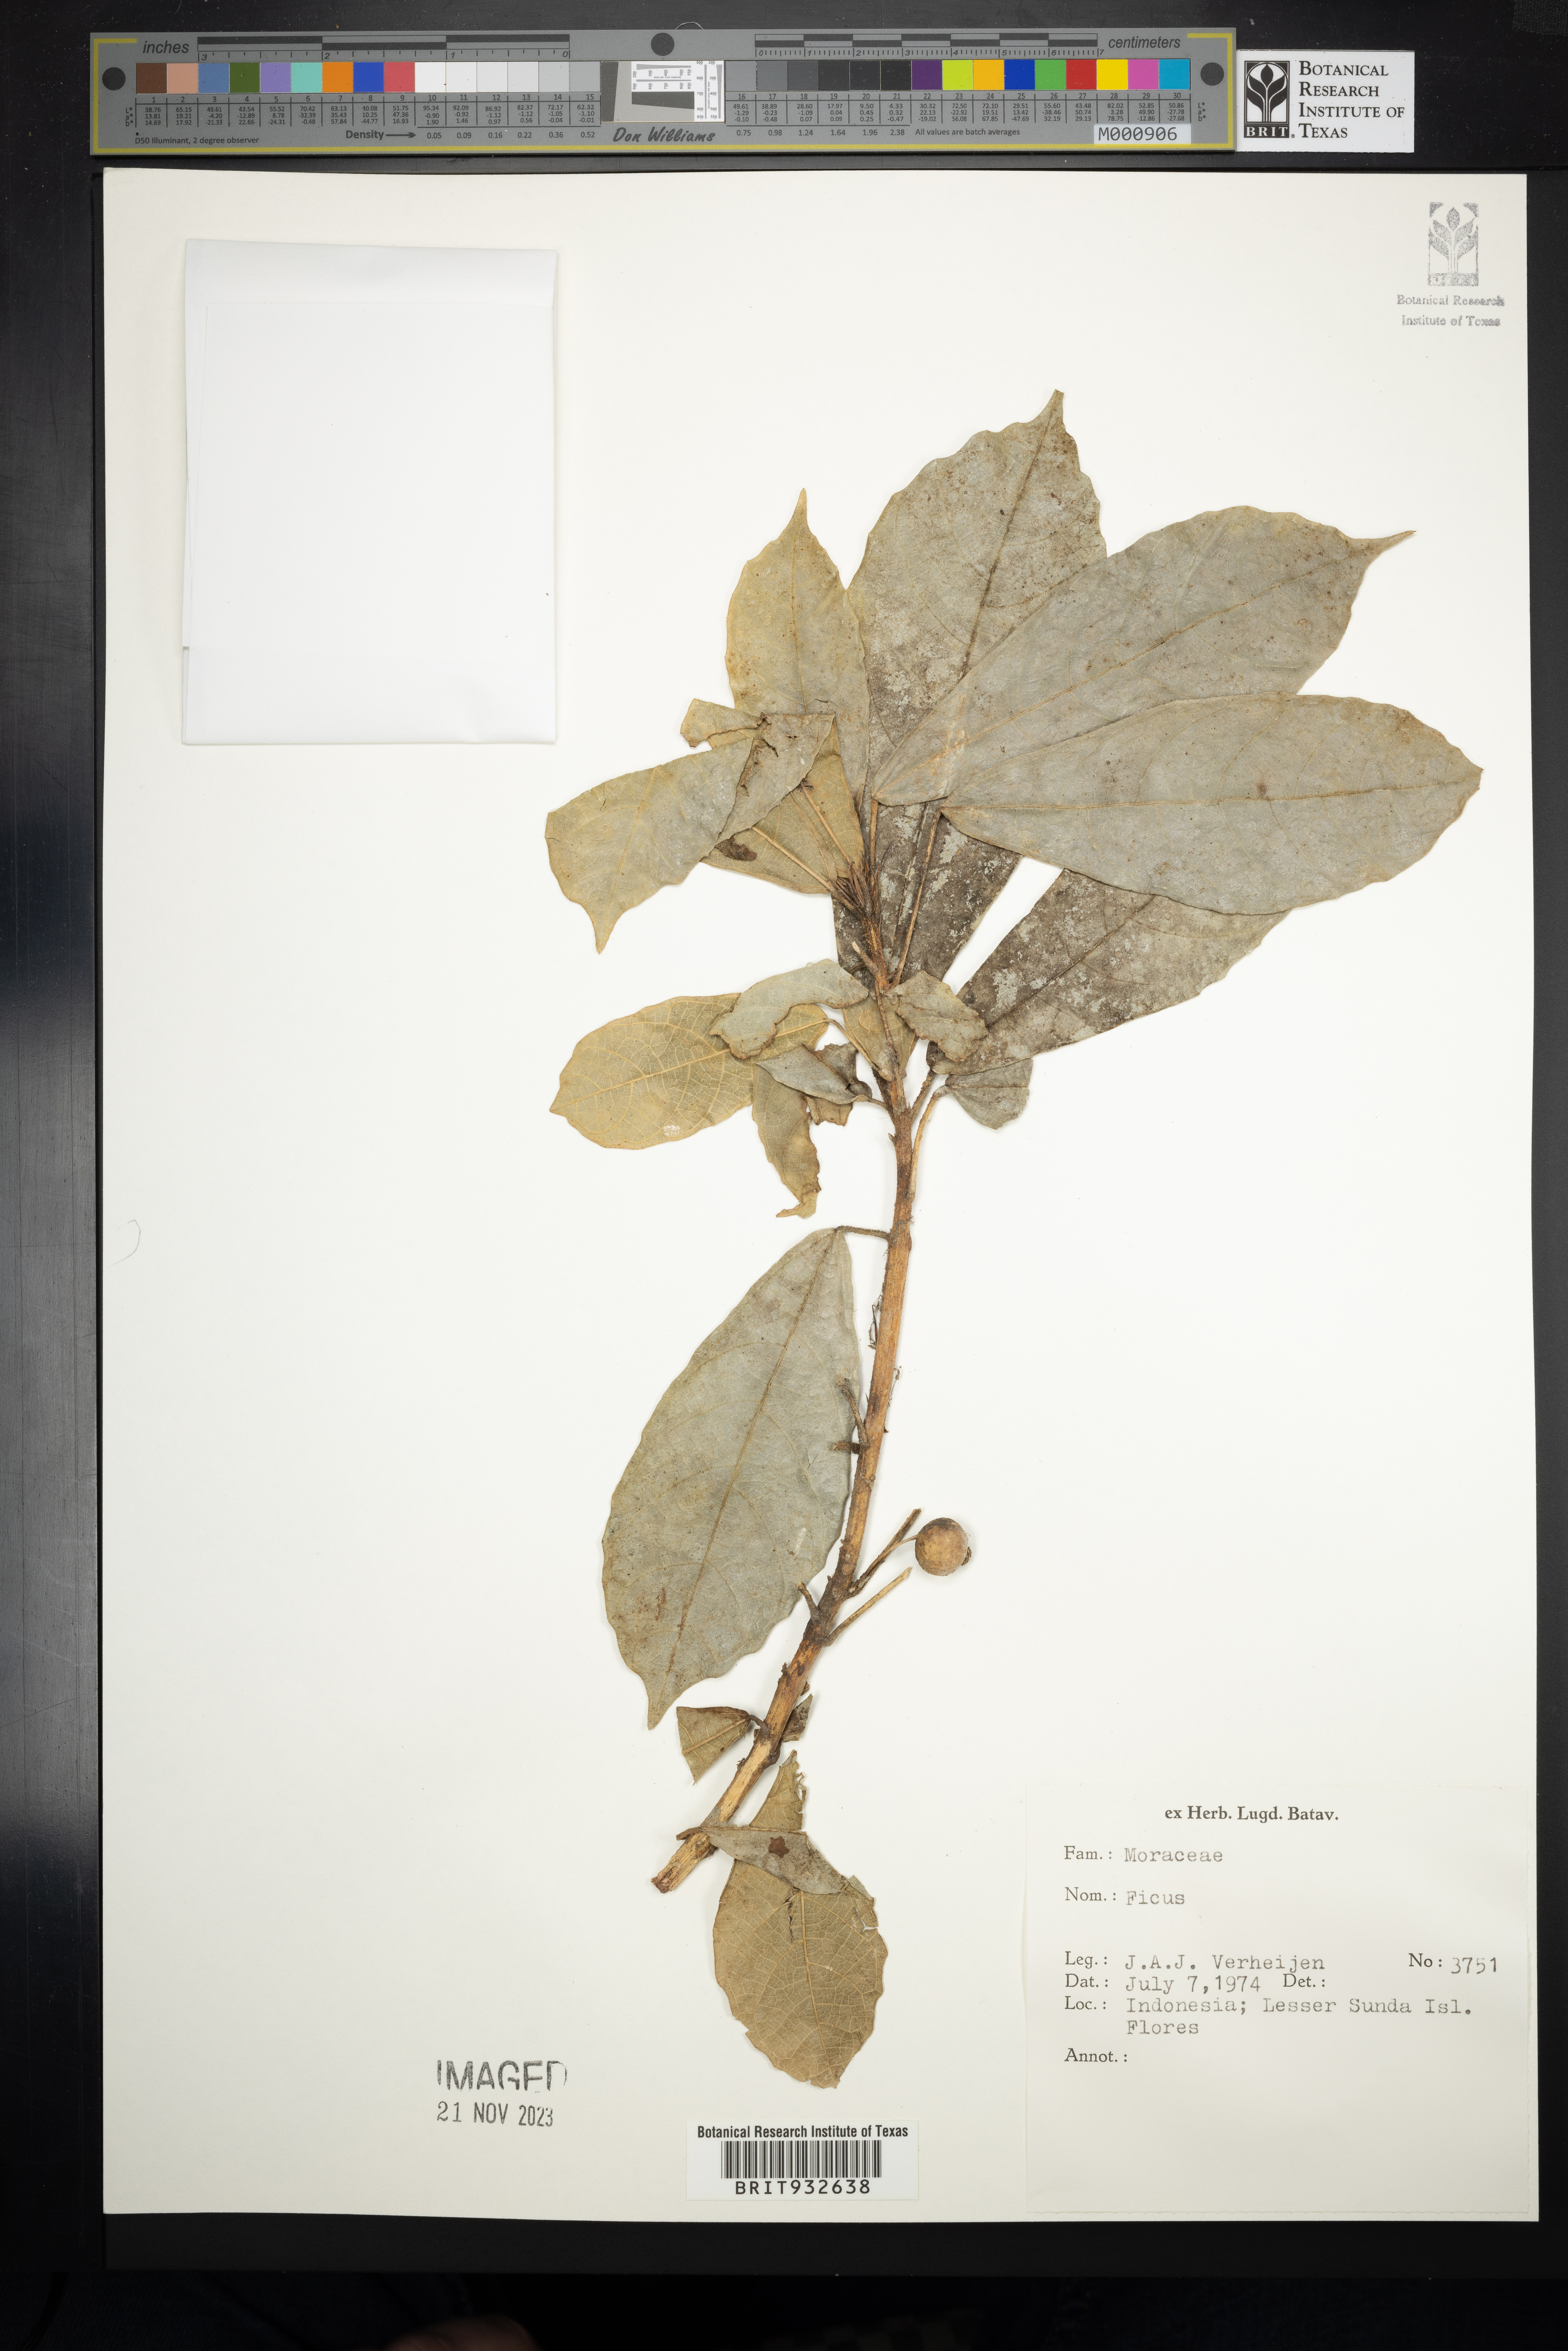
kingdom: Plantae
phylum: Tracheophyta
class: Magnoliopsida
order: Rosales
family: Moraceae
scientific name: Moraceae
